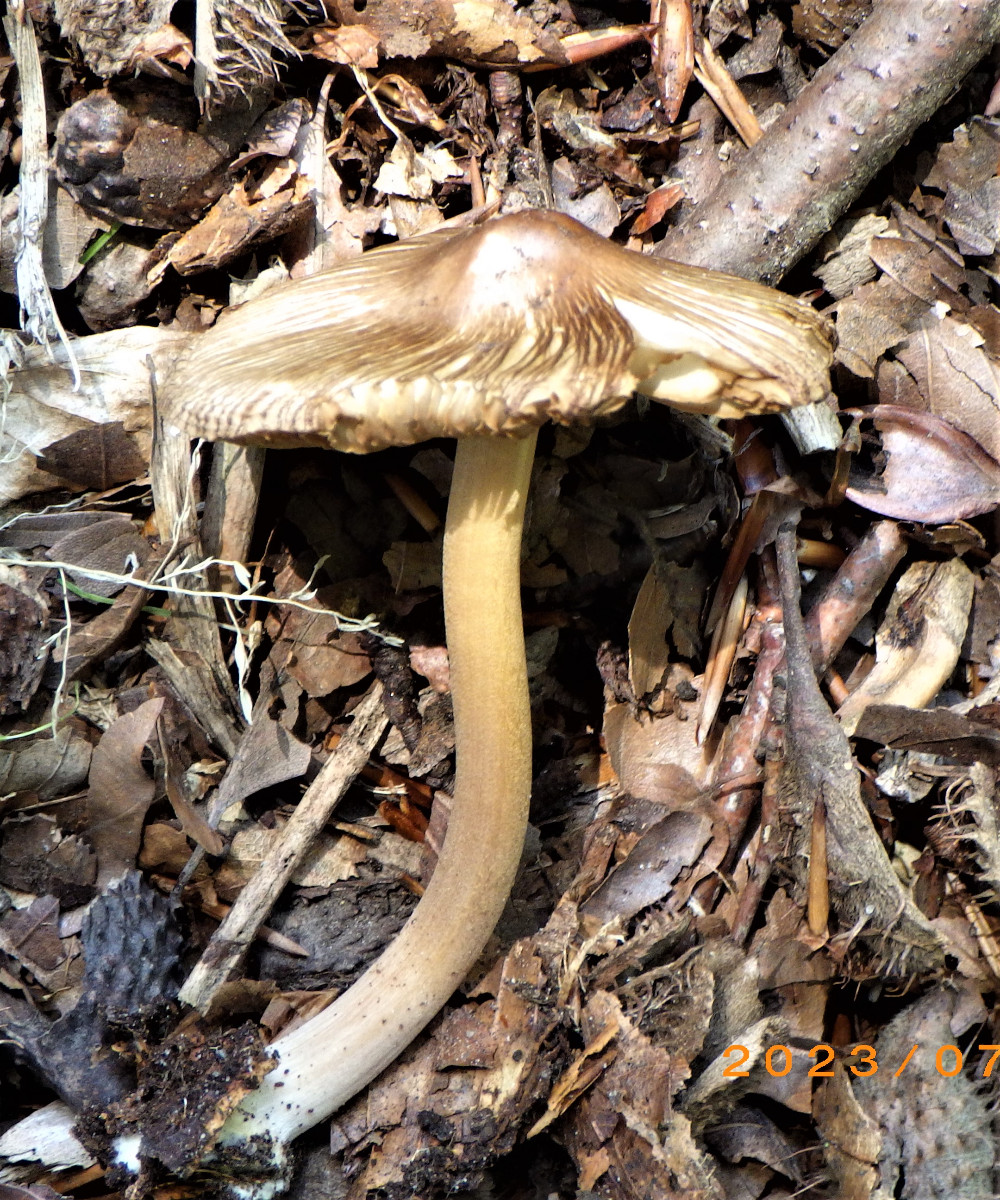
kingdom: Fungi
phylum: Basidiomycota
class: Agaricomycetes
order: Agaricales
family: Inocybaceae
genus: Inocybe
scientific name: Inocybe asterospora
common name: stjernesporet trævlhat
